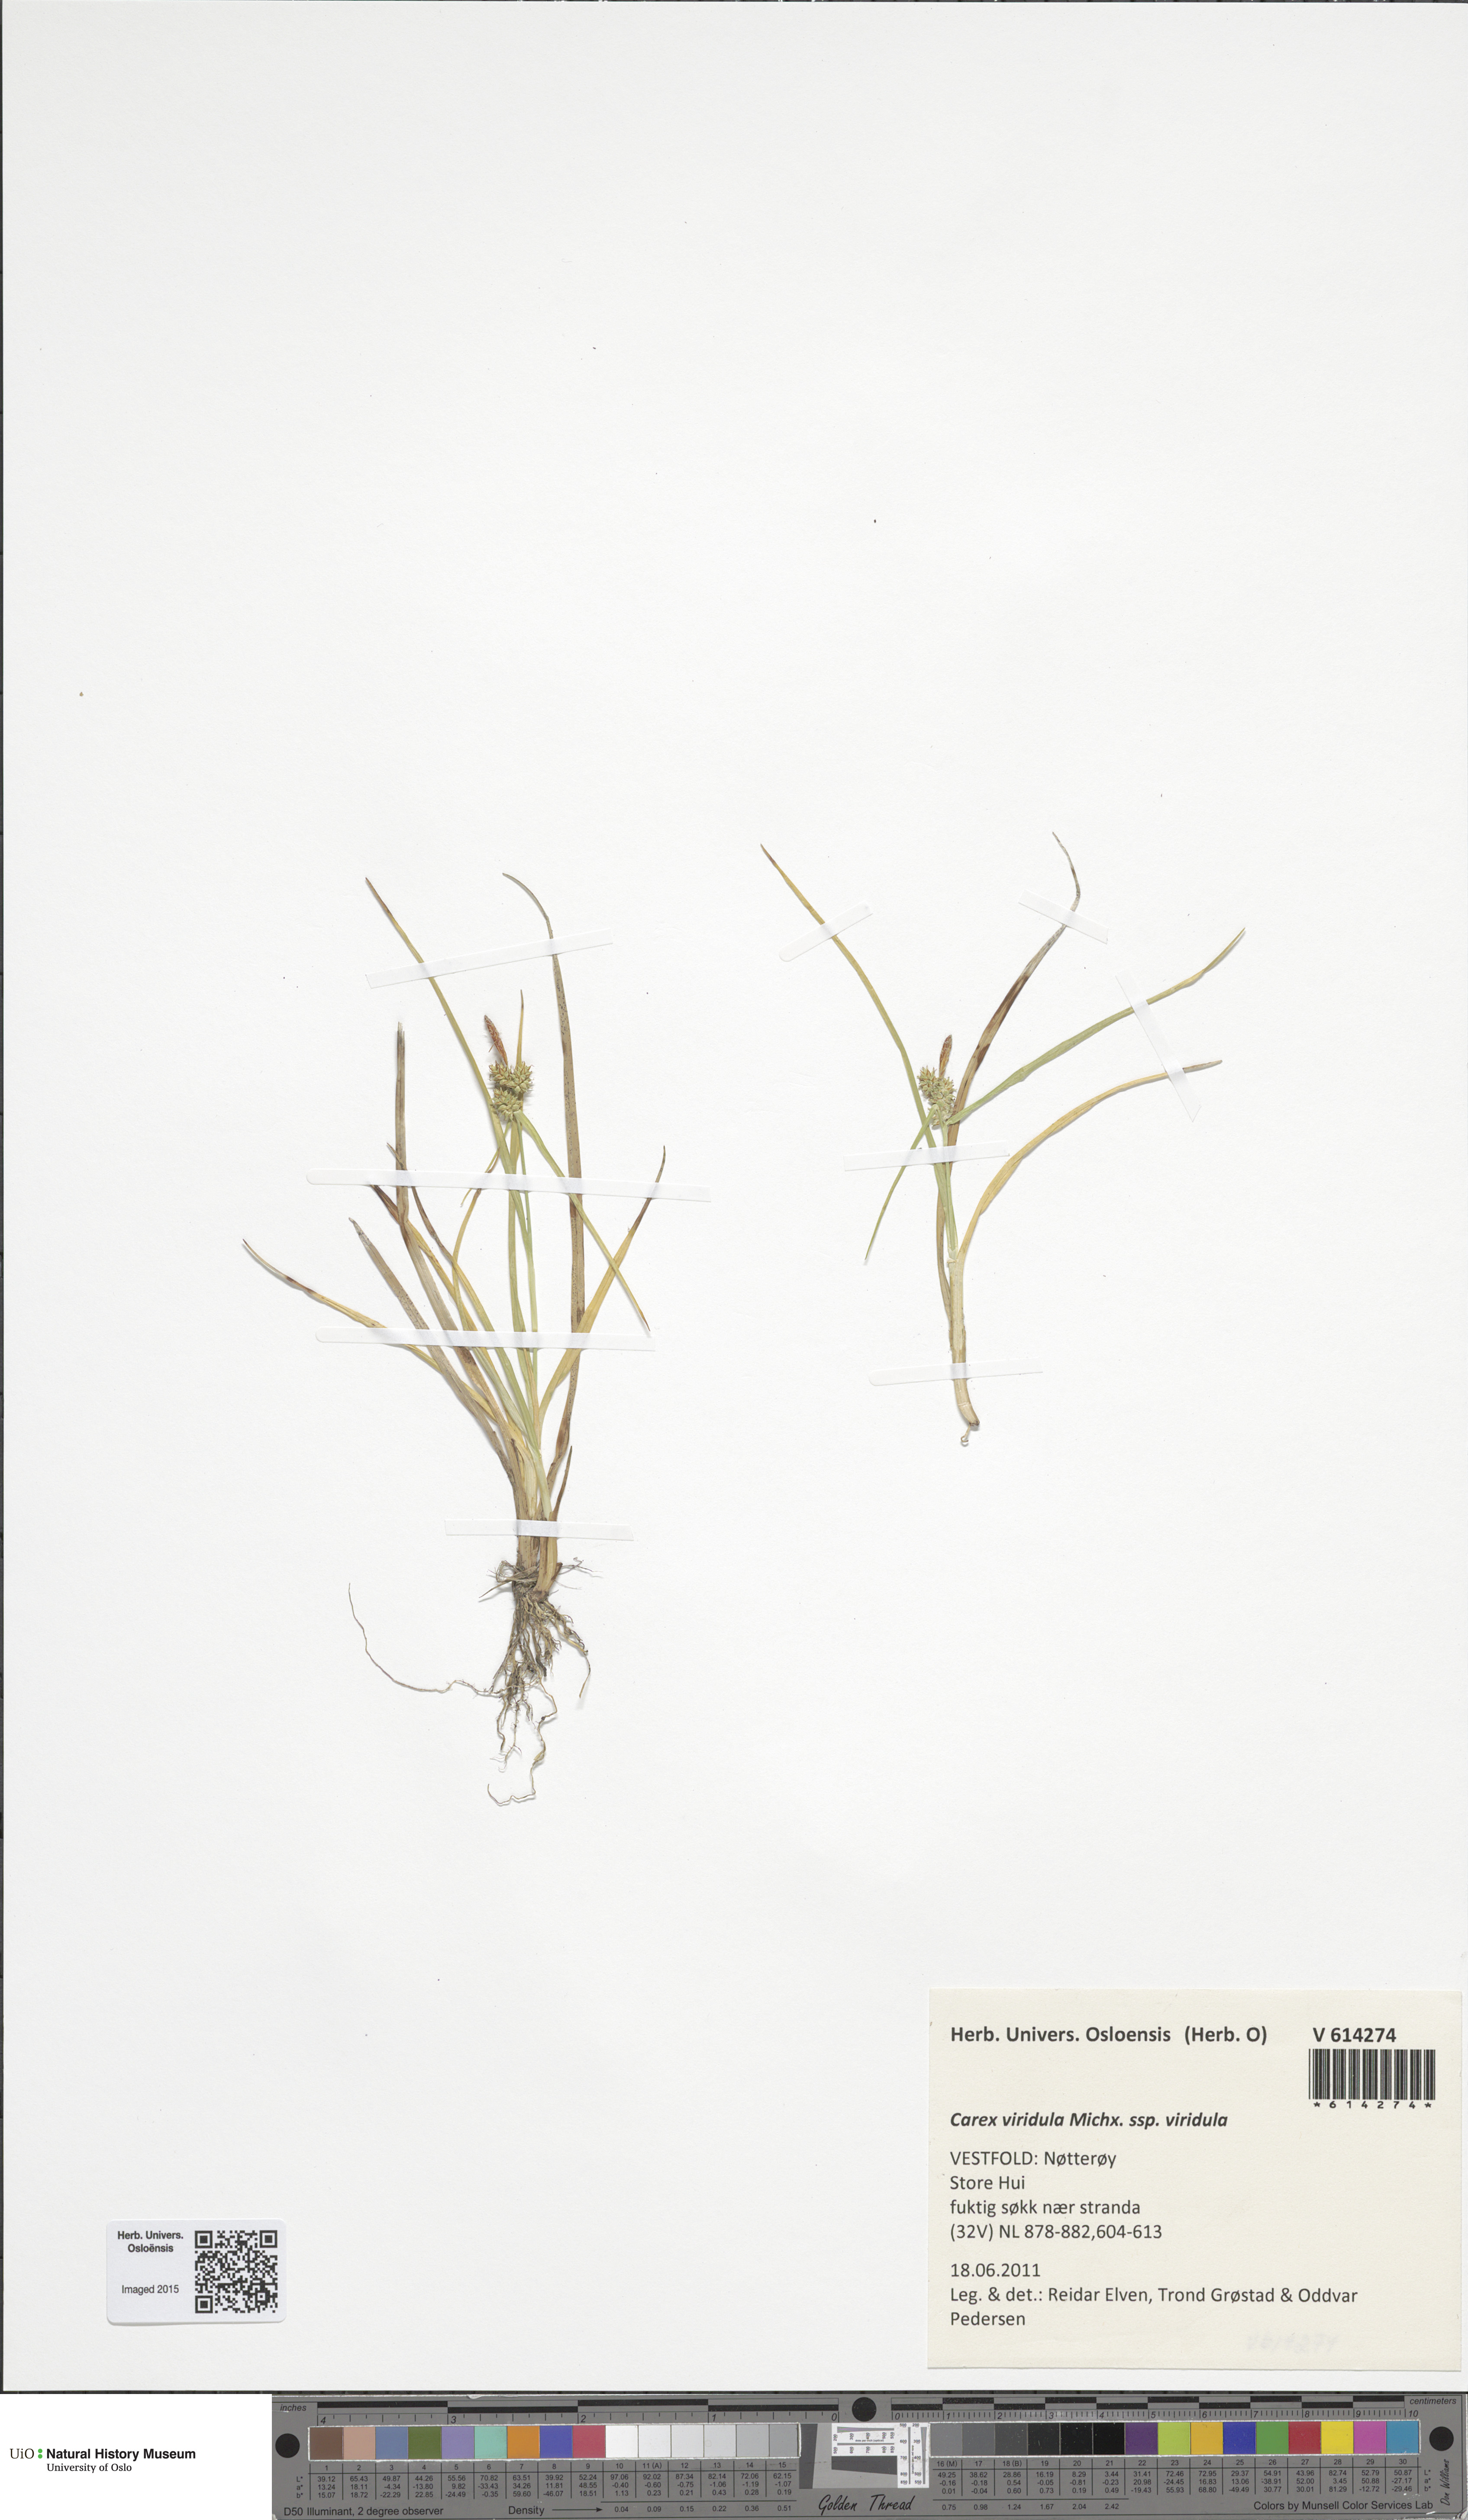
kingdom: Plantae
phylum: Tracheophyta
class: Liliopsida
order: Poales
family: Cyperaceae
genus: Carex
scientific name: Carex oederi
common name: Common & small-fruited yellow-sedge
